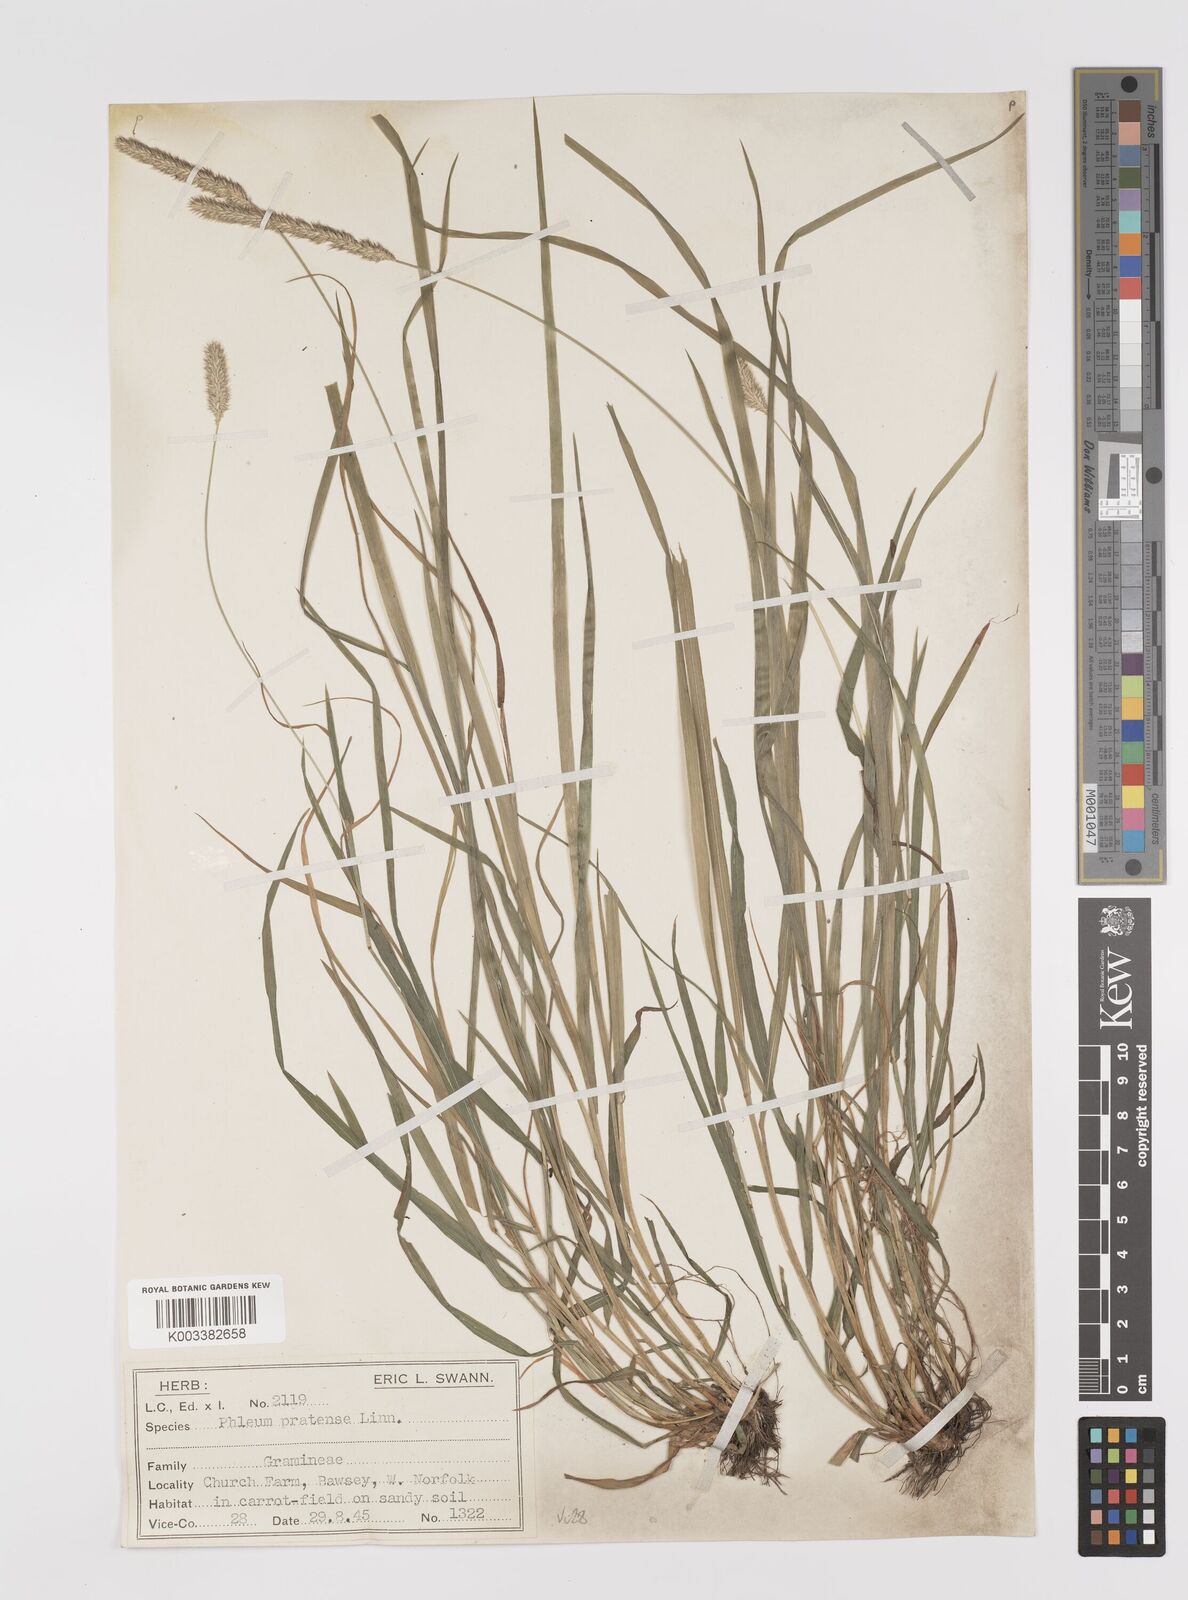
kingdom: Plantae
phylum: Tracheophyta
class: Liliopsida
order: Poales
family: Poaceae
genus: Phleum
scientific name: Phleum pratense
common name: Timothy grass
